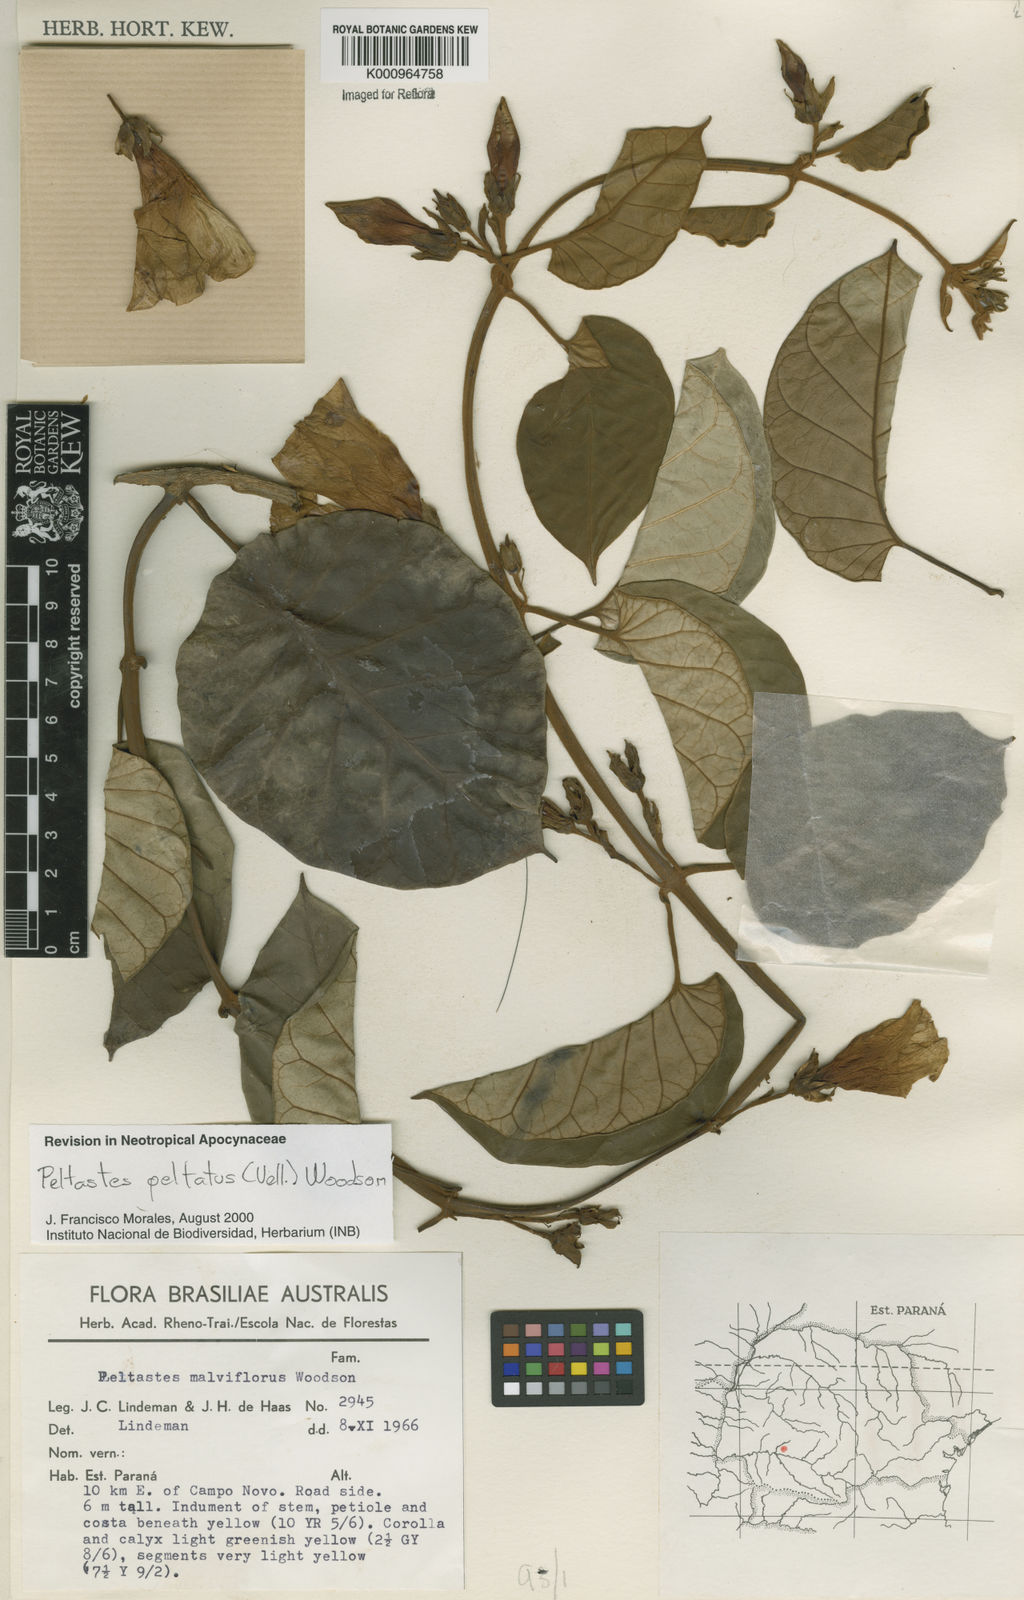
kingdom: Plantae
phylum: Tracheophyta
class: Magnoliopsida
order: Gentianales
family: Apocynaceae
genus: Macropharynx
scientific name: Macropharynx peltata
